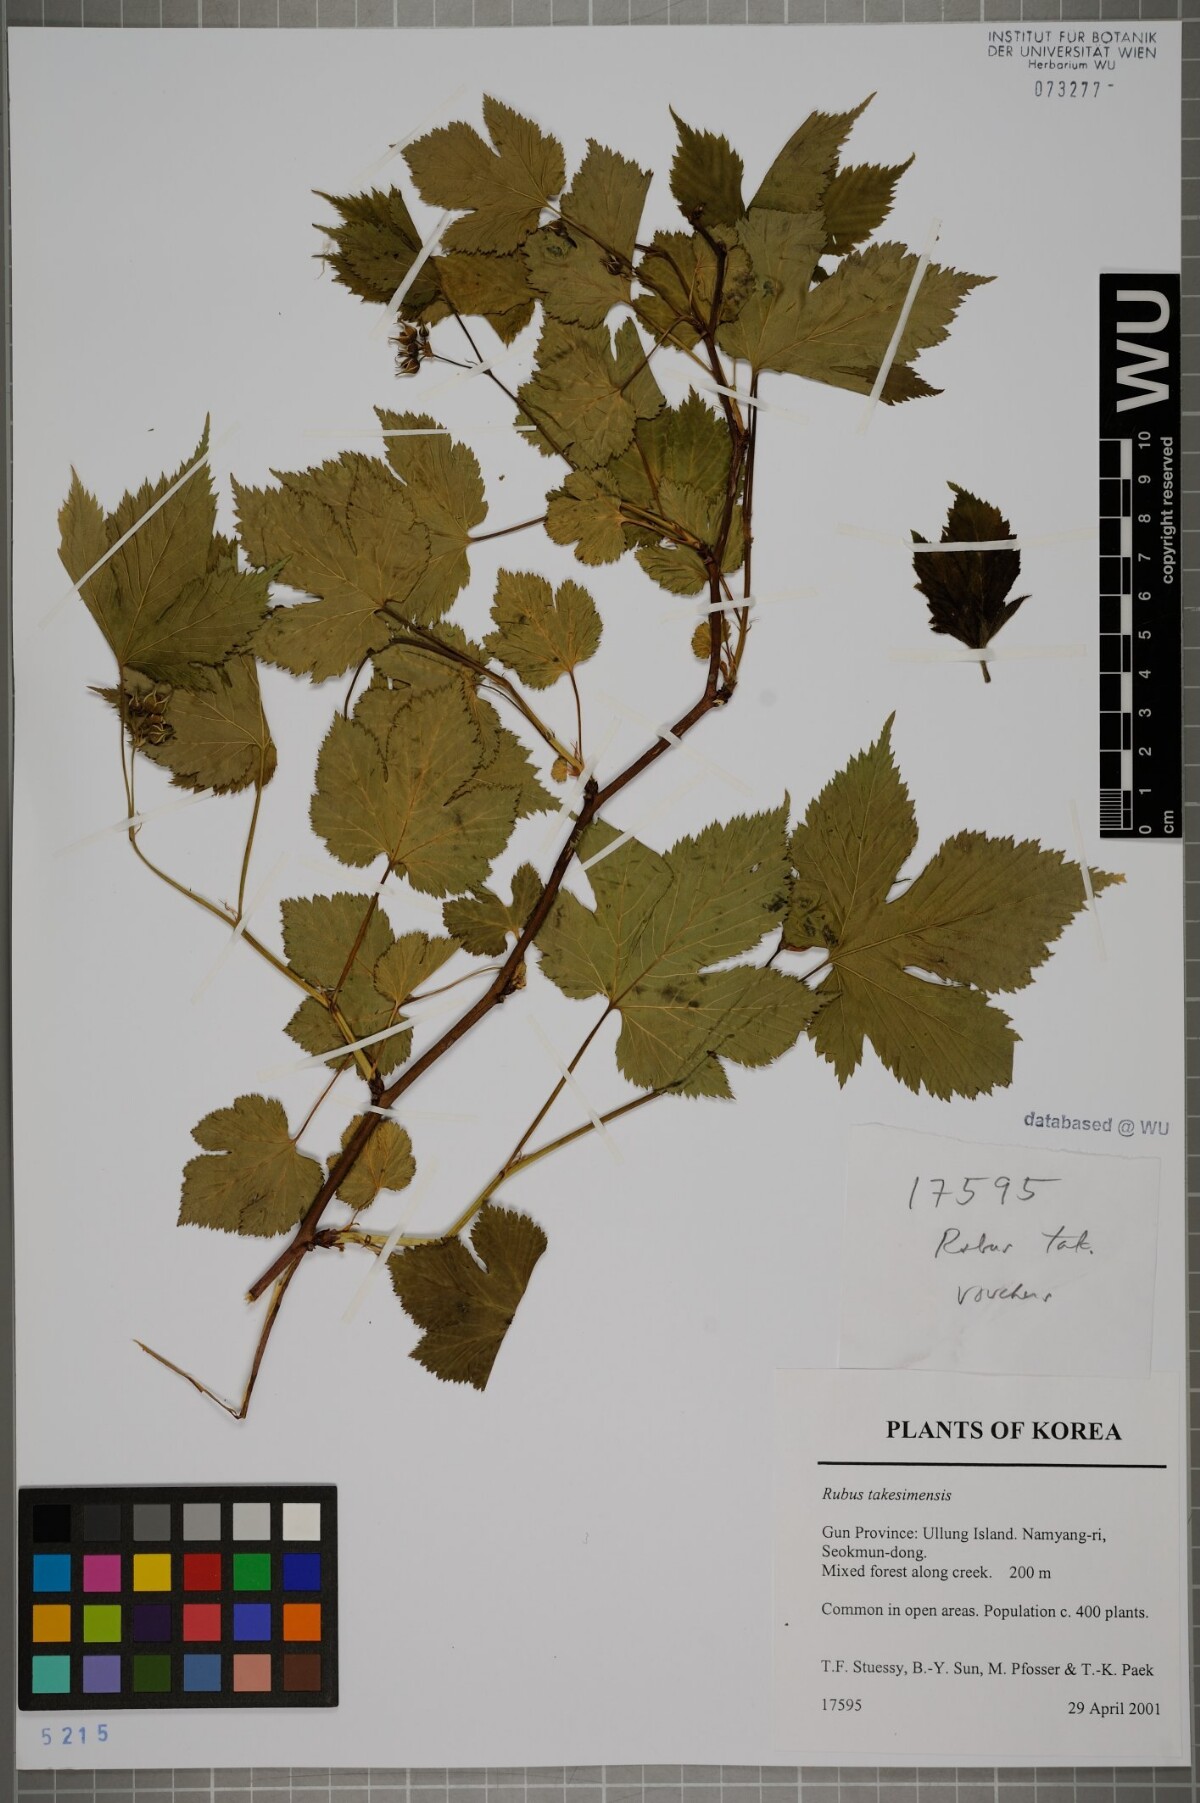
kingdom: Plantae
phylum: Tracheophyta
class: Magnoliopsida
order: Rosales
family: Rosaceae
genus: Rubus
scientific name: Rubus crataegifolius
